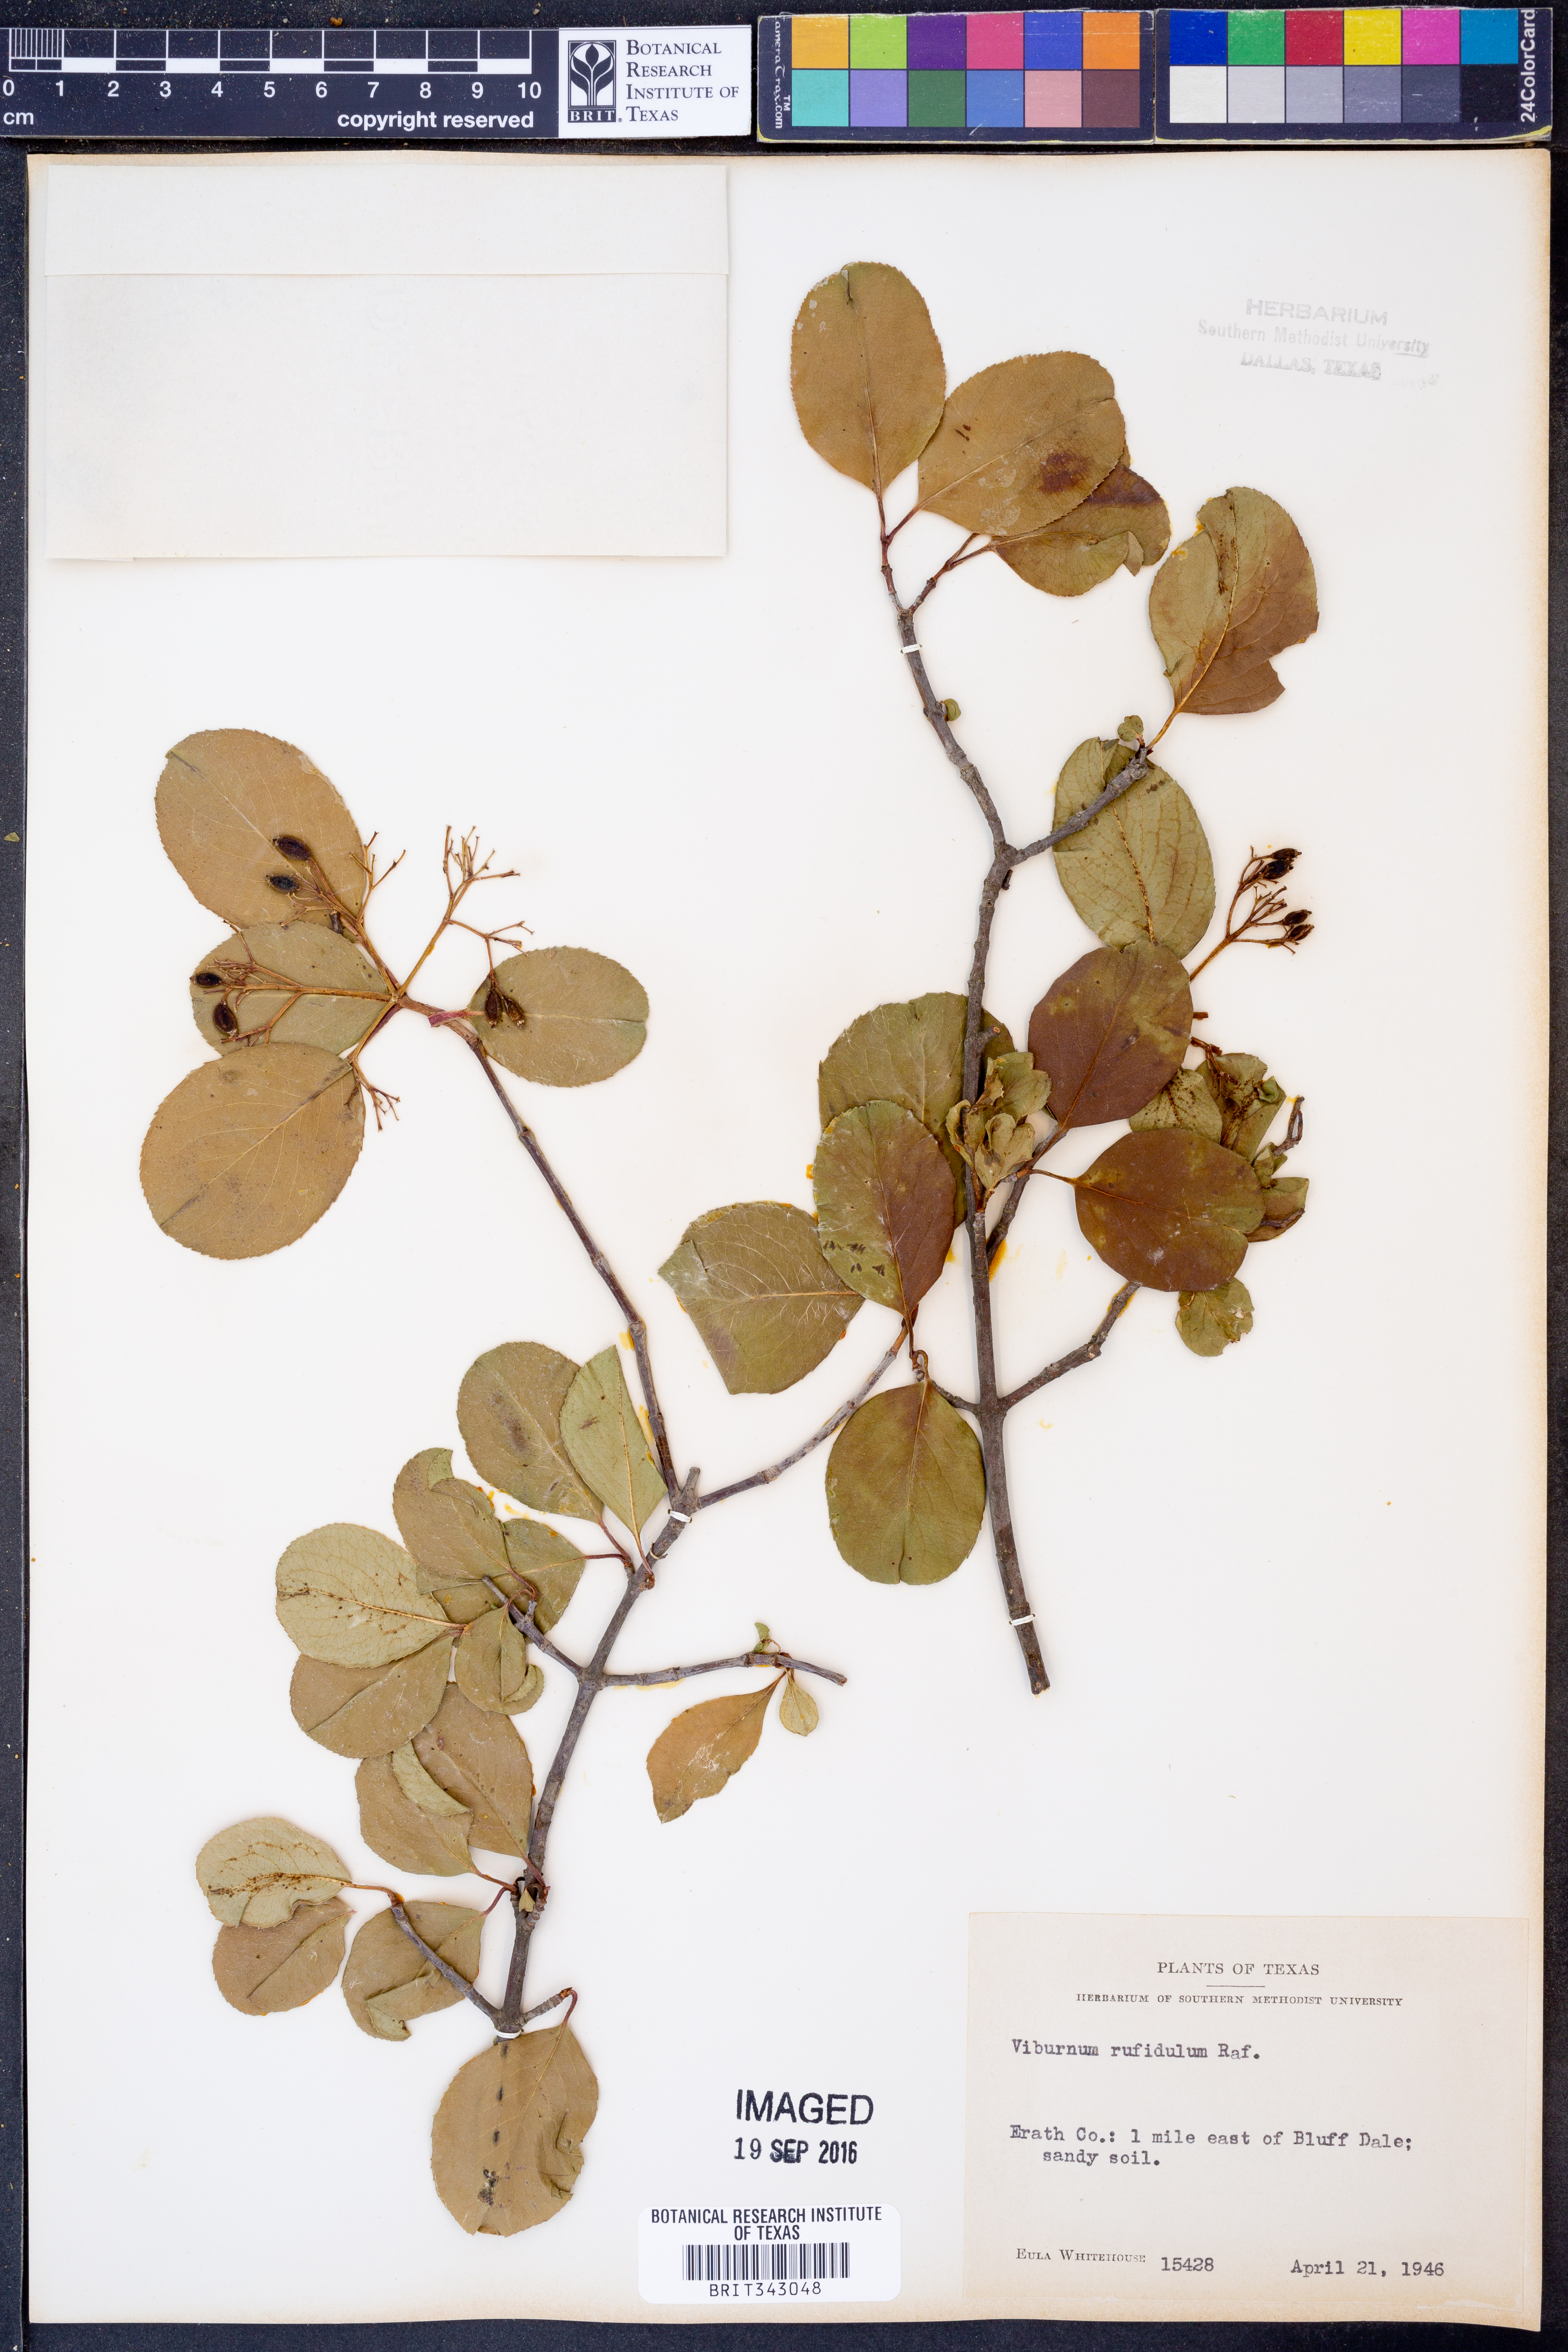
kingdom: Plantae
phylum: Tracheophyta
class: Magnoliopsida
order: Dipsacales
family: Viburnaceae
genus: Viburnum
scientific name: Viburnum rufidulum
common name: Blue haw
